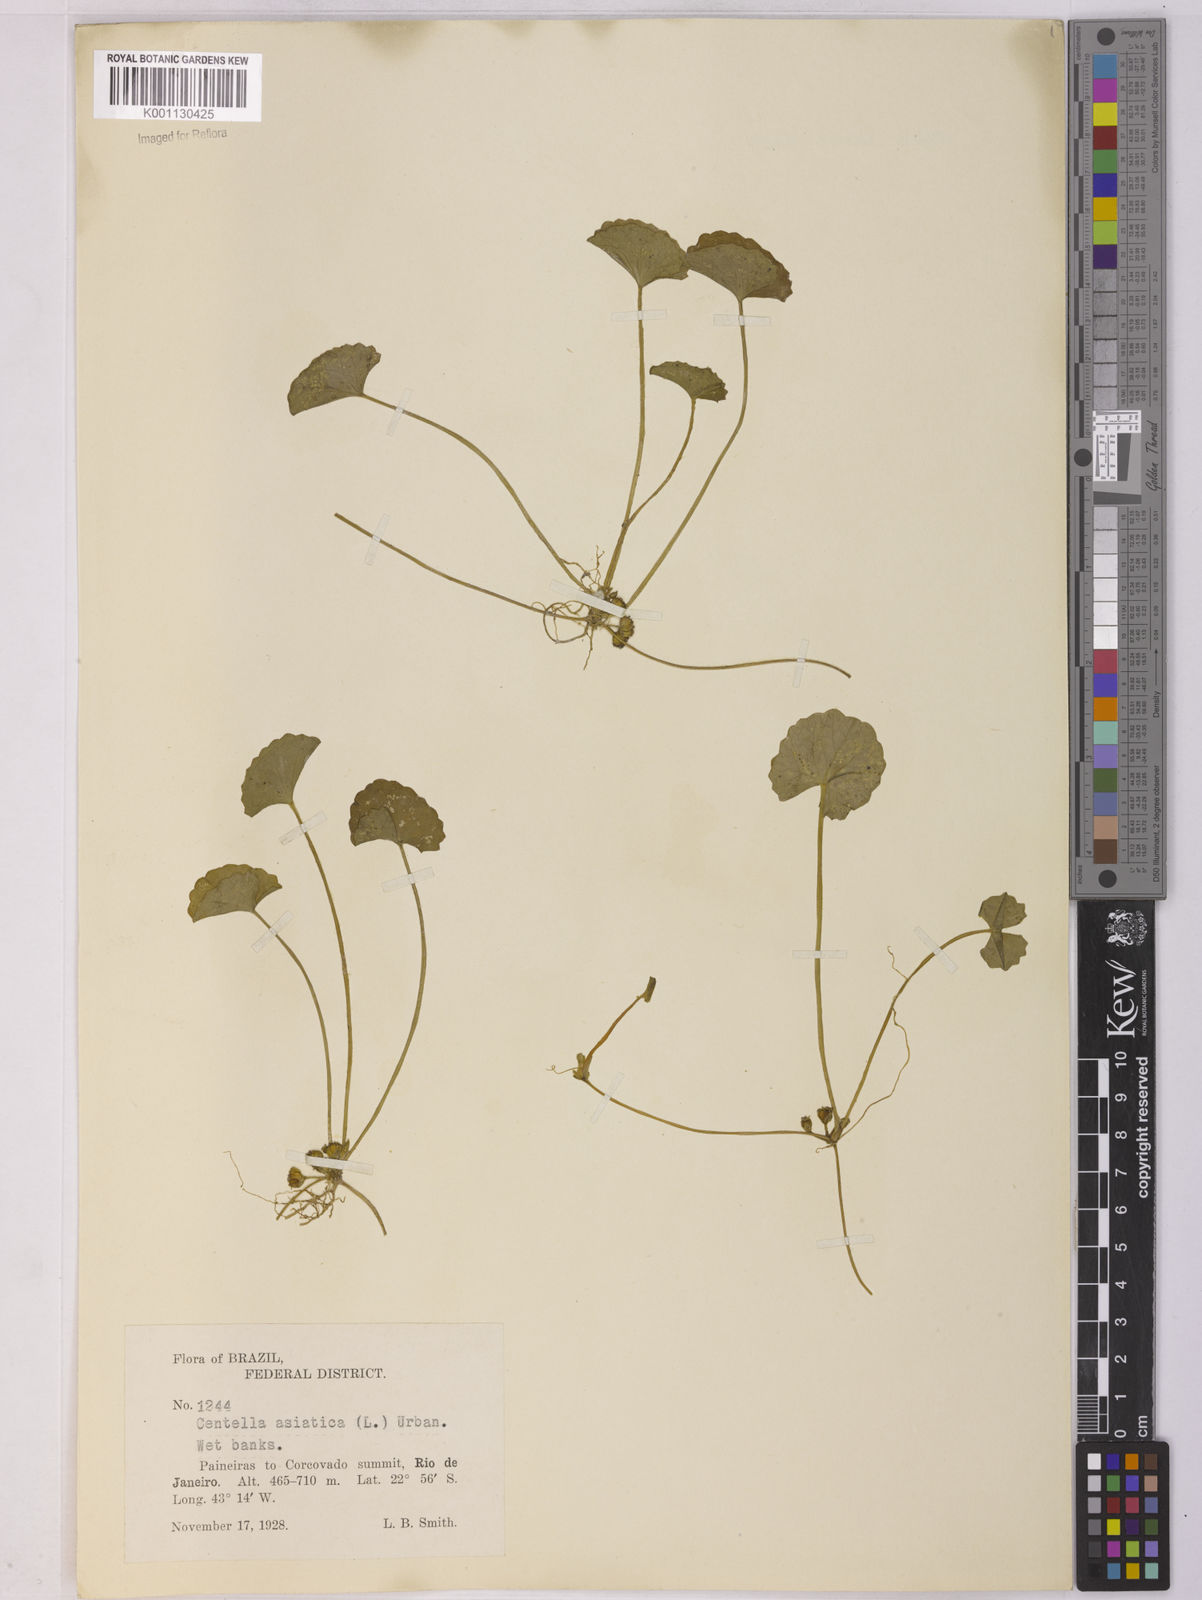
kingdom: Plantae
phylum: Tracheophyta
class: Magnoliopsida
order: Apiales
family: Apiaceae
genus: Centella
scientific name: Centella erecta
